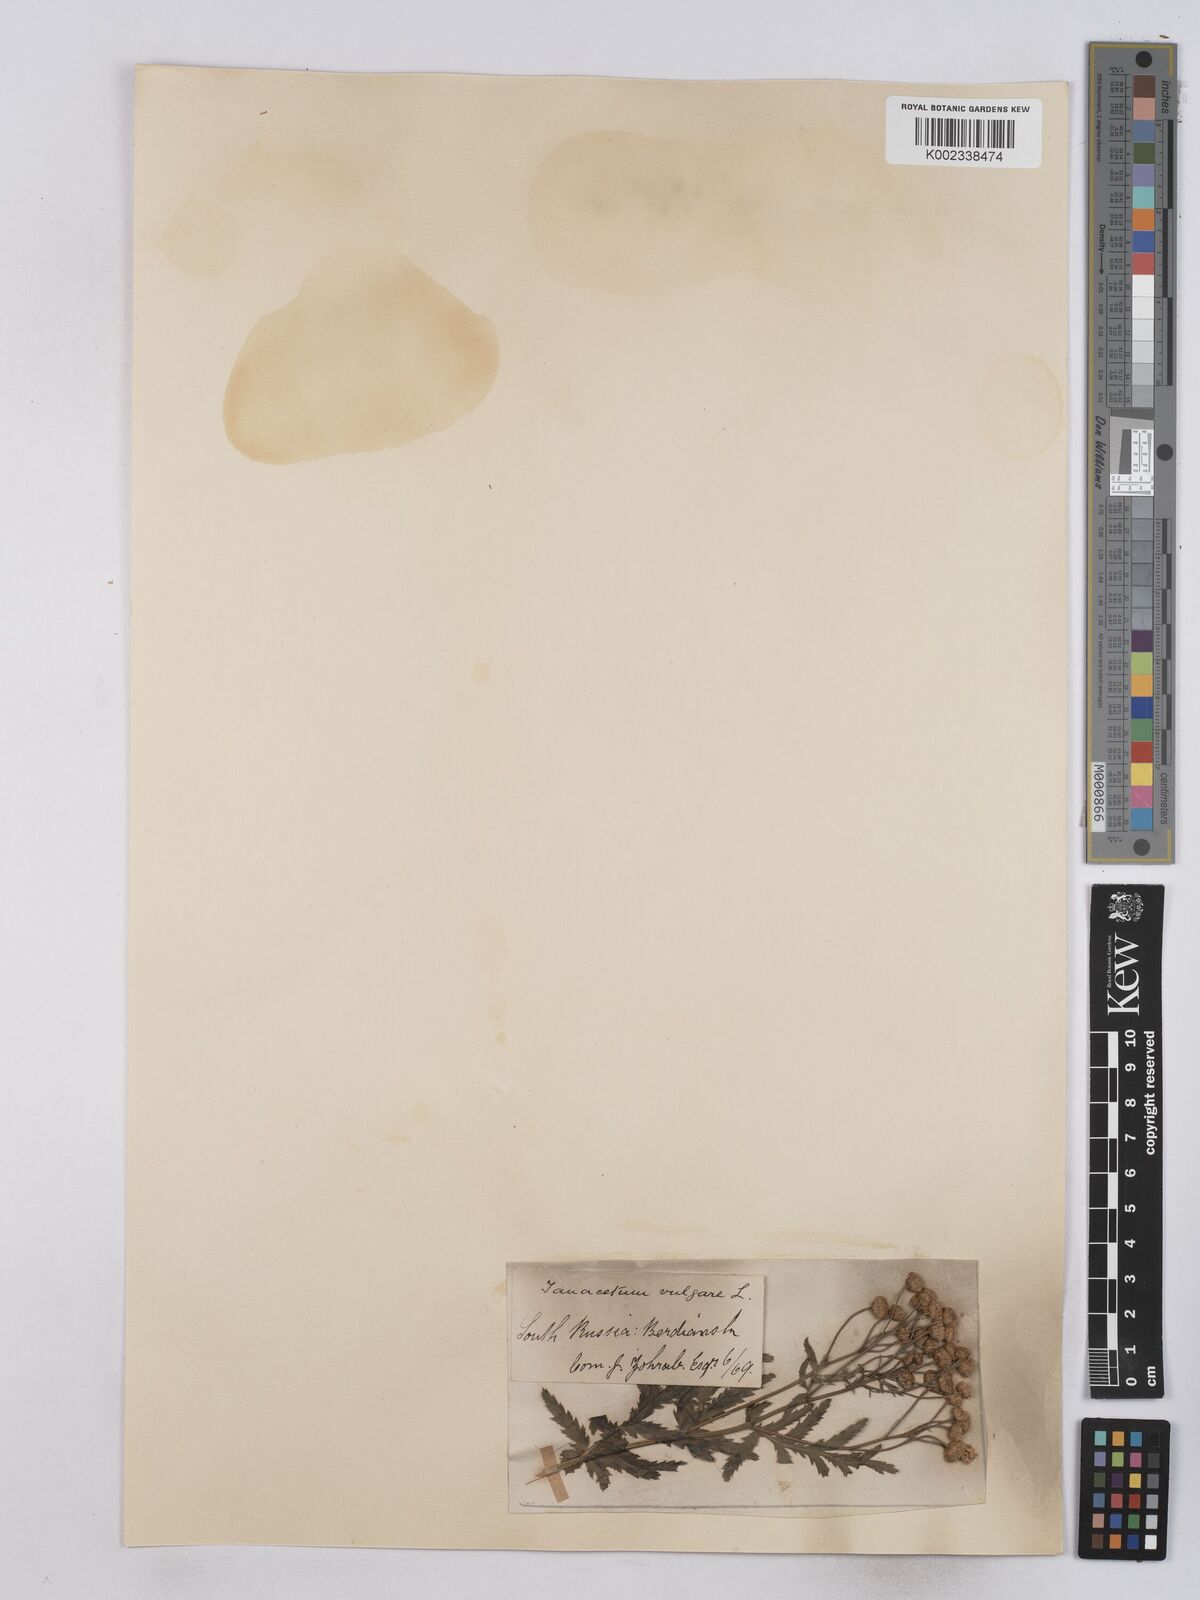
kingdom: Plantae
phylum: Tracheophyta
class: Magnoliopsida
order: Asterales
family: Asteraceae
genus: Tanacetum
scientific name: Tanacetum vulgare
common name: Common tansy
